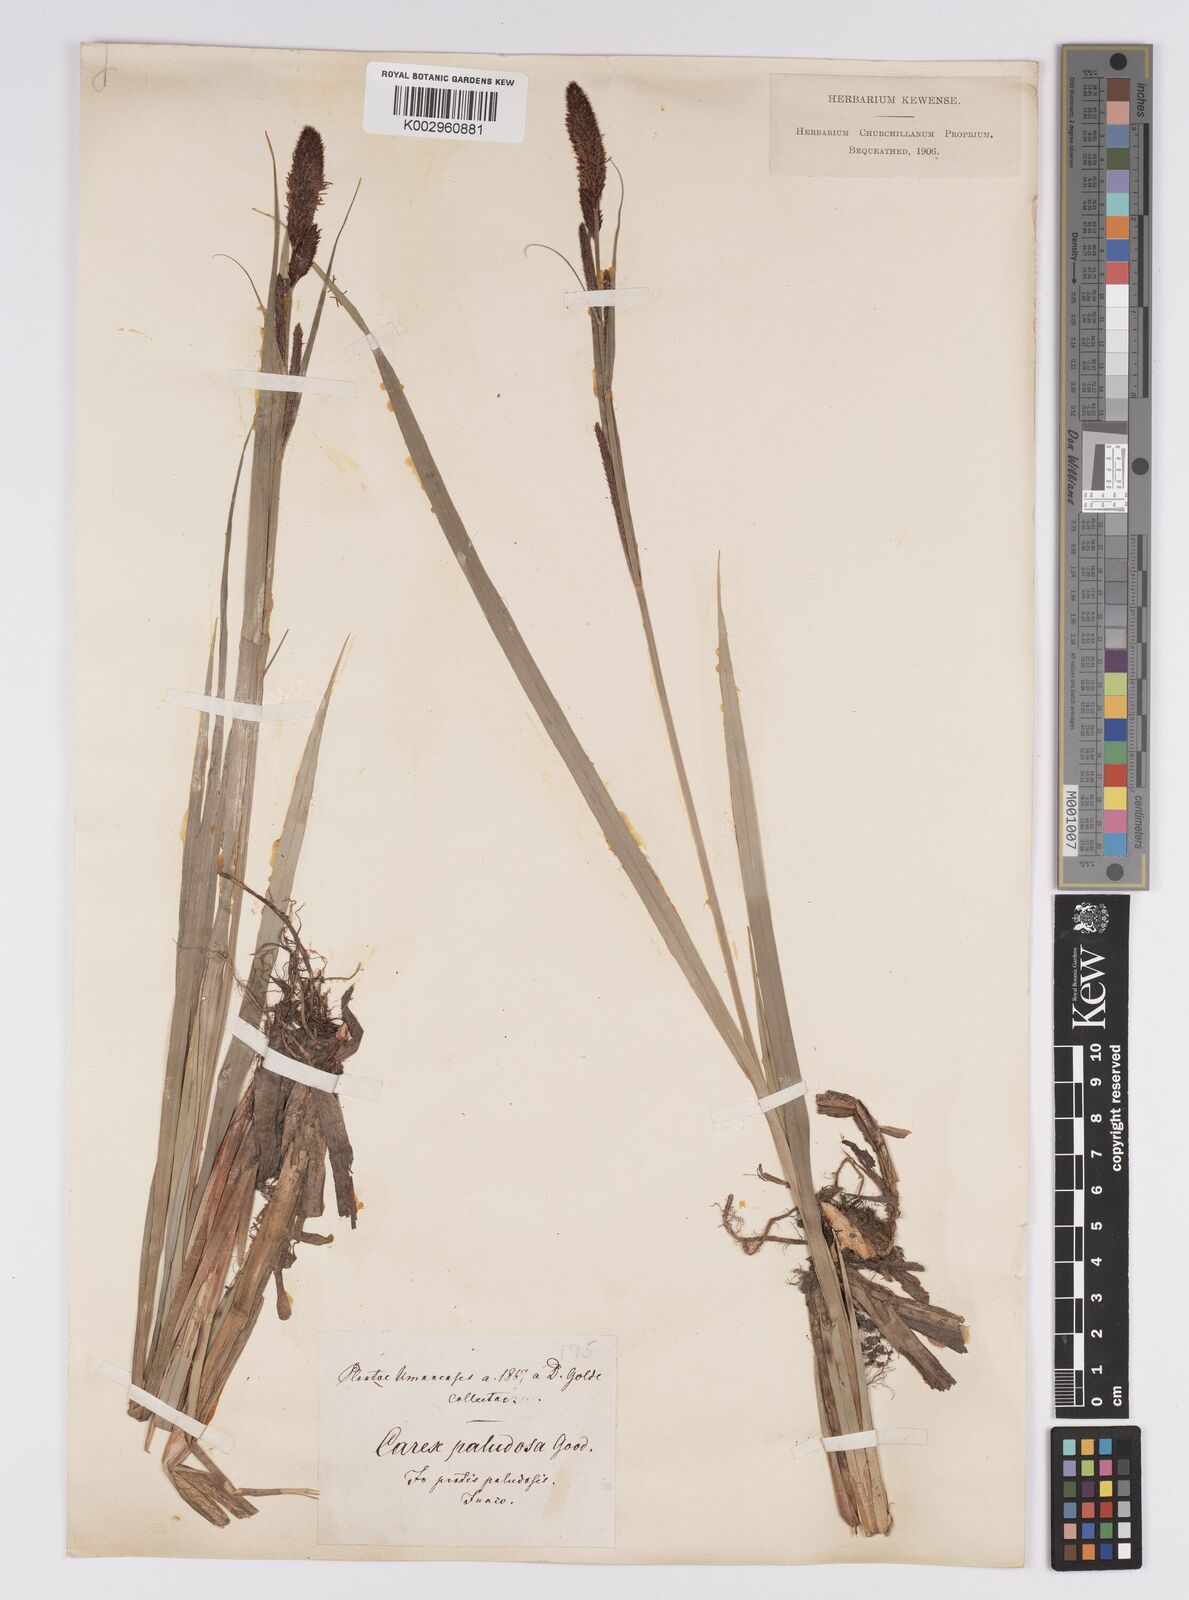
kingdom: Plantae
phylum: Tracheophyta
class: Liliopsida
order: Poales
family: Cyperaceae
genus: Carex
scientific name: Carex acutiformis
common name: Lesser pond-sedge
